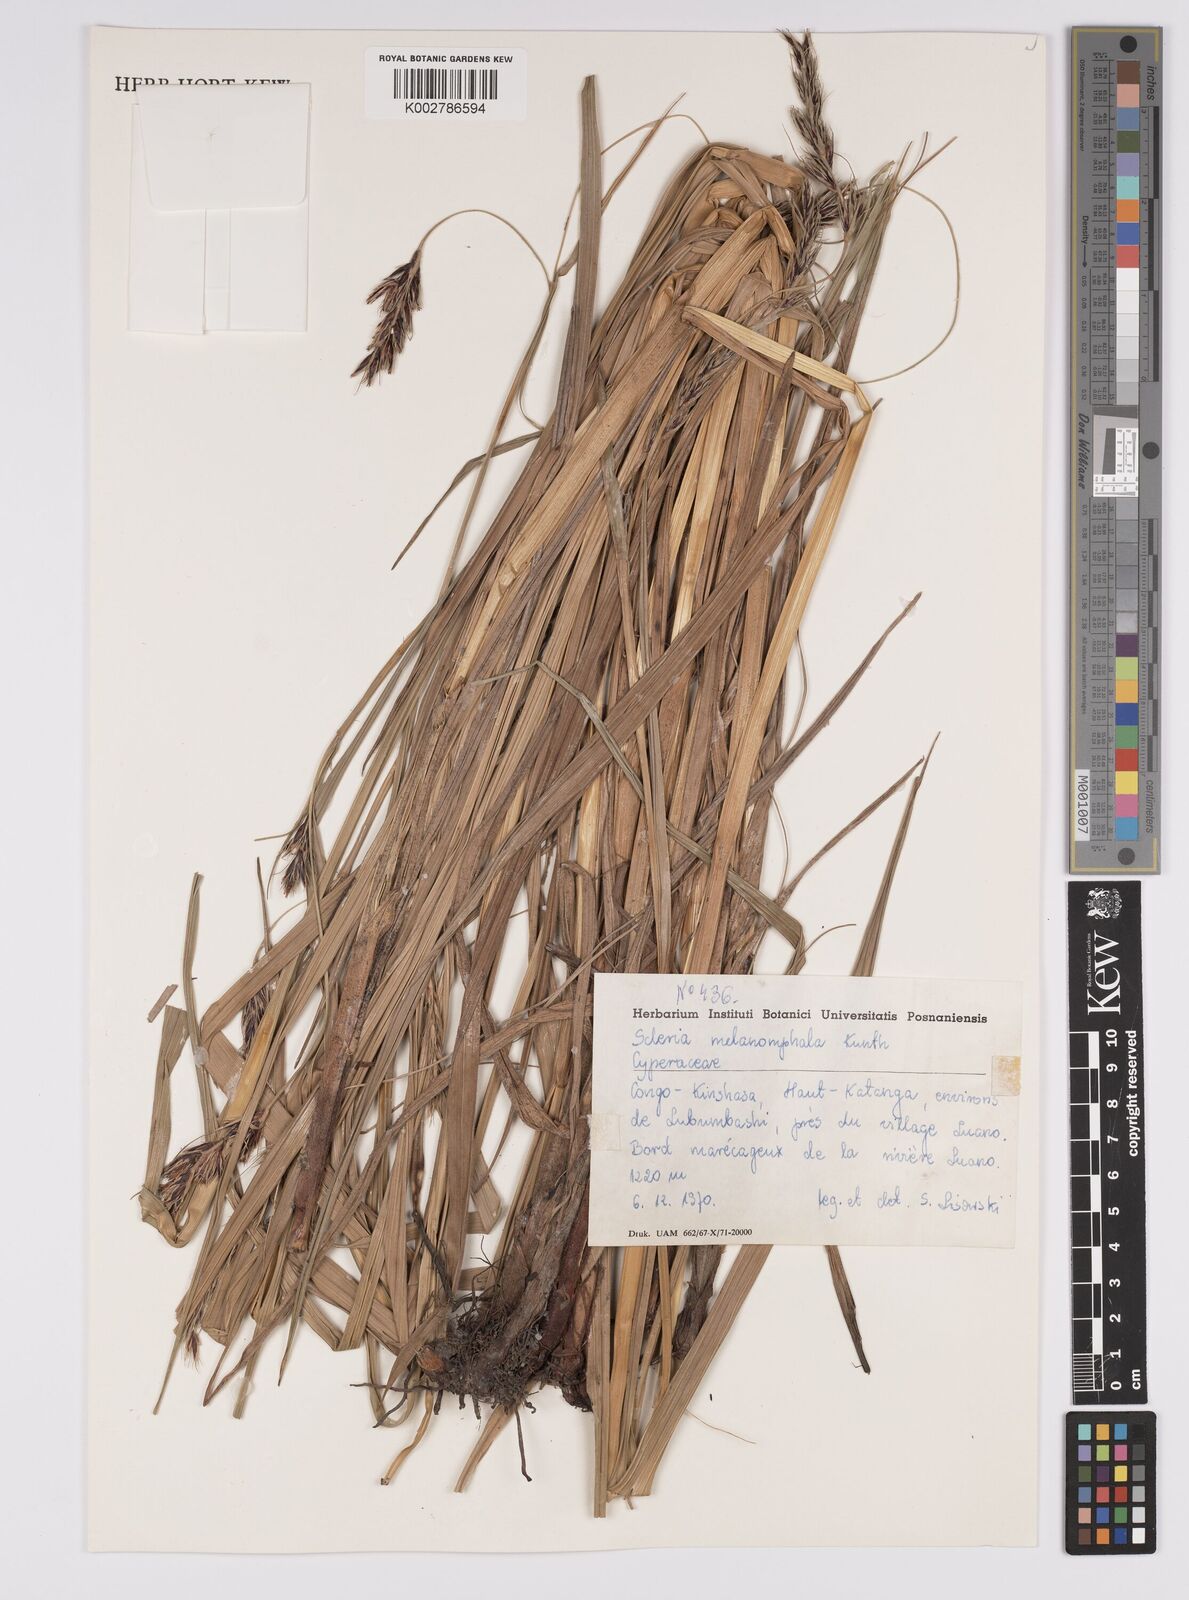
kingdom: Plantae
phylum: Tracheophyta
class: Liliopsida
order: Poales
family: Cyperaceae
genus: Scleria
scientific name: Scleria melanomphala
